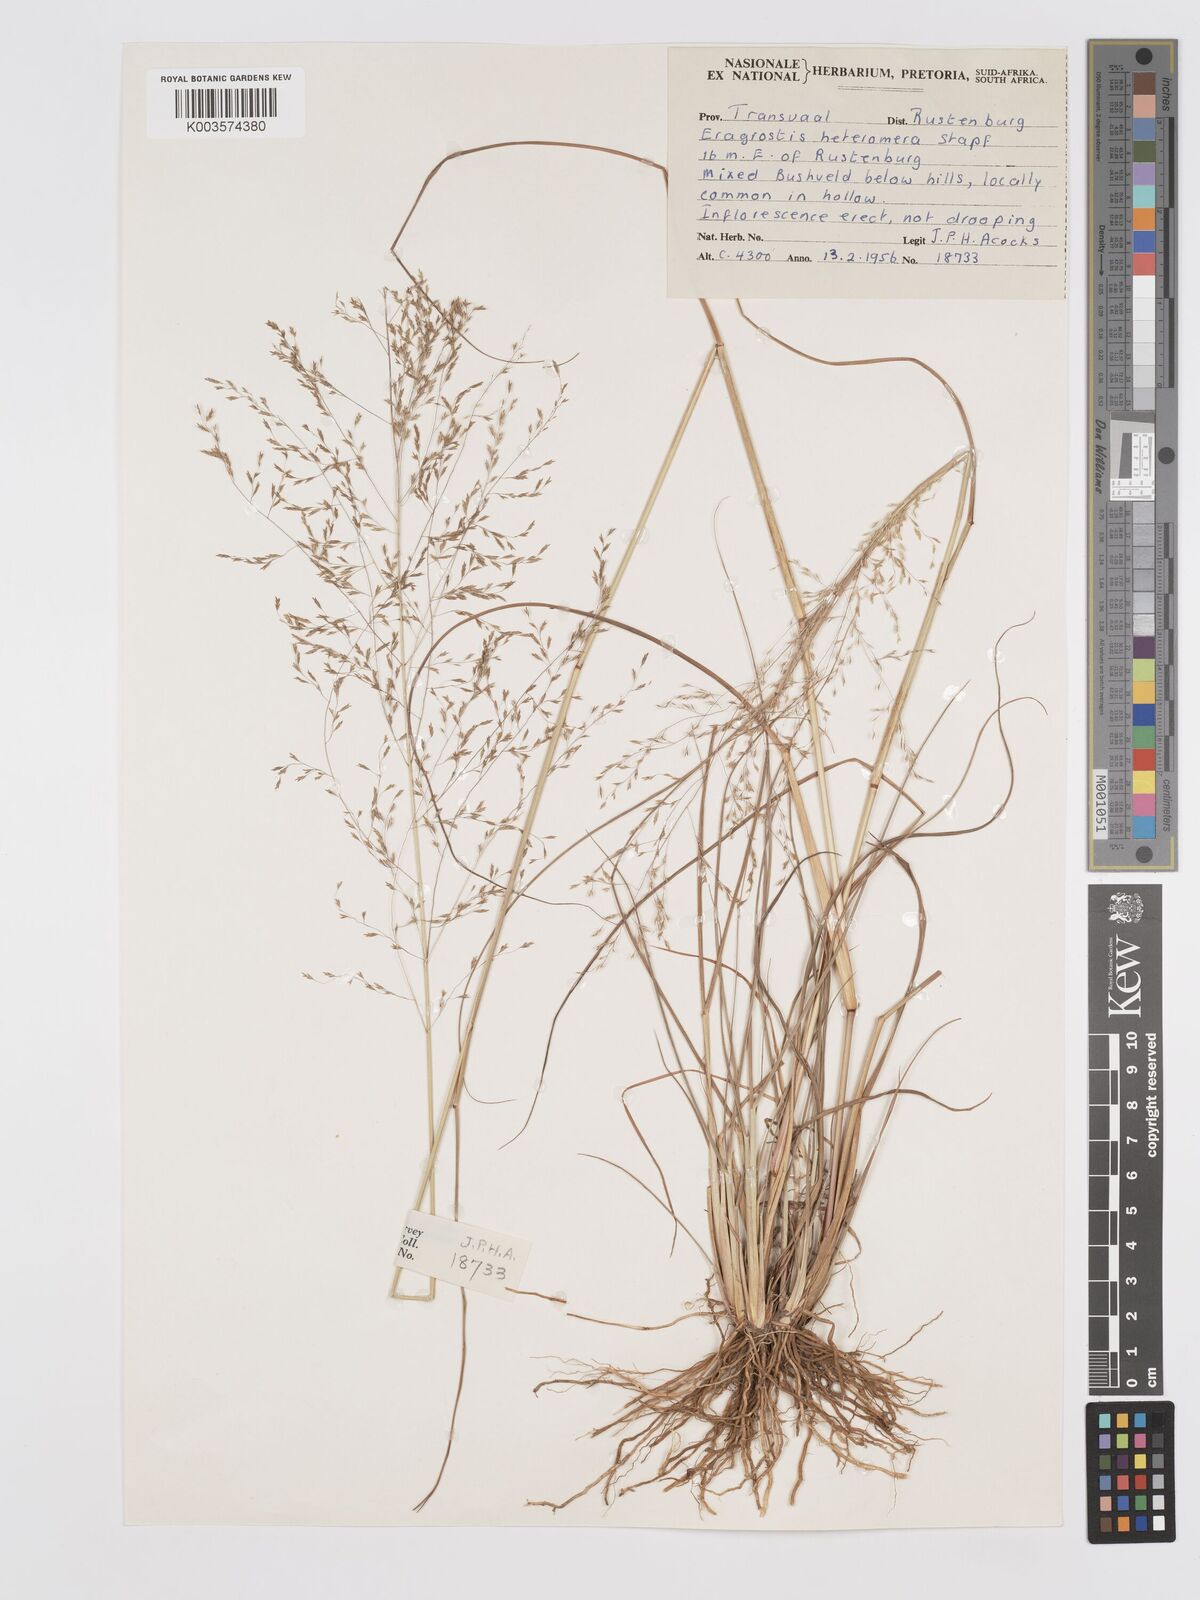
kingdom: Plantae
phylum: Tracheophyta
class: Liliopsida
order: Poales
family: Poaceae
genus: Eragrostis
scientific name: Eragrostis heteromera
